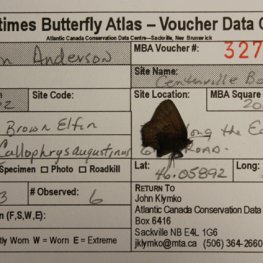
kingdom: Animalia
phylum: Arthropoda
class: Insecta
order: Lepidoptera
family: Lycaenidae
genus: Incisalia
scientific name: Incisalia irioides
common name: Brown Elfin
